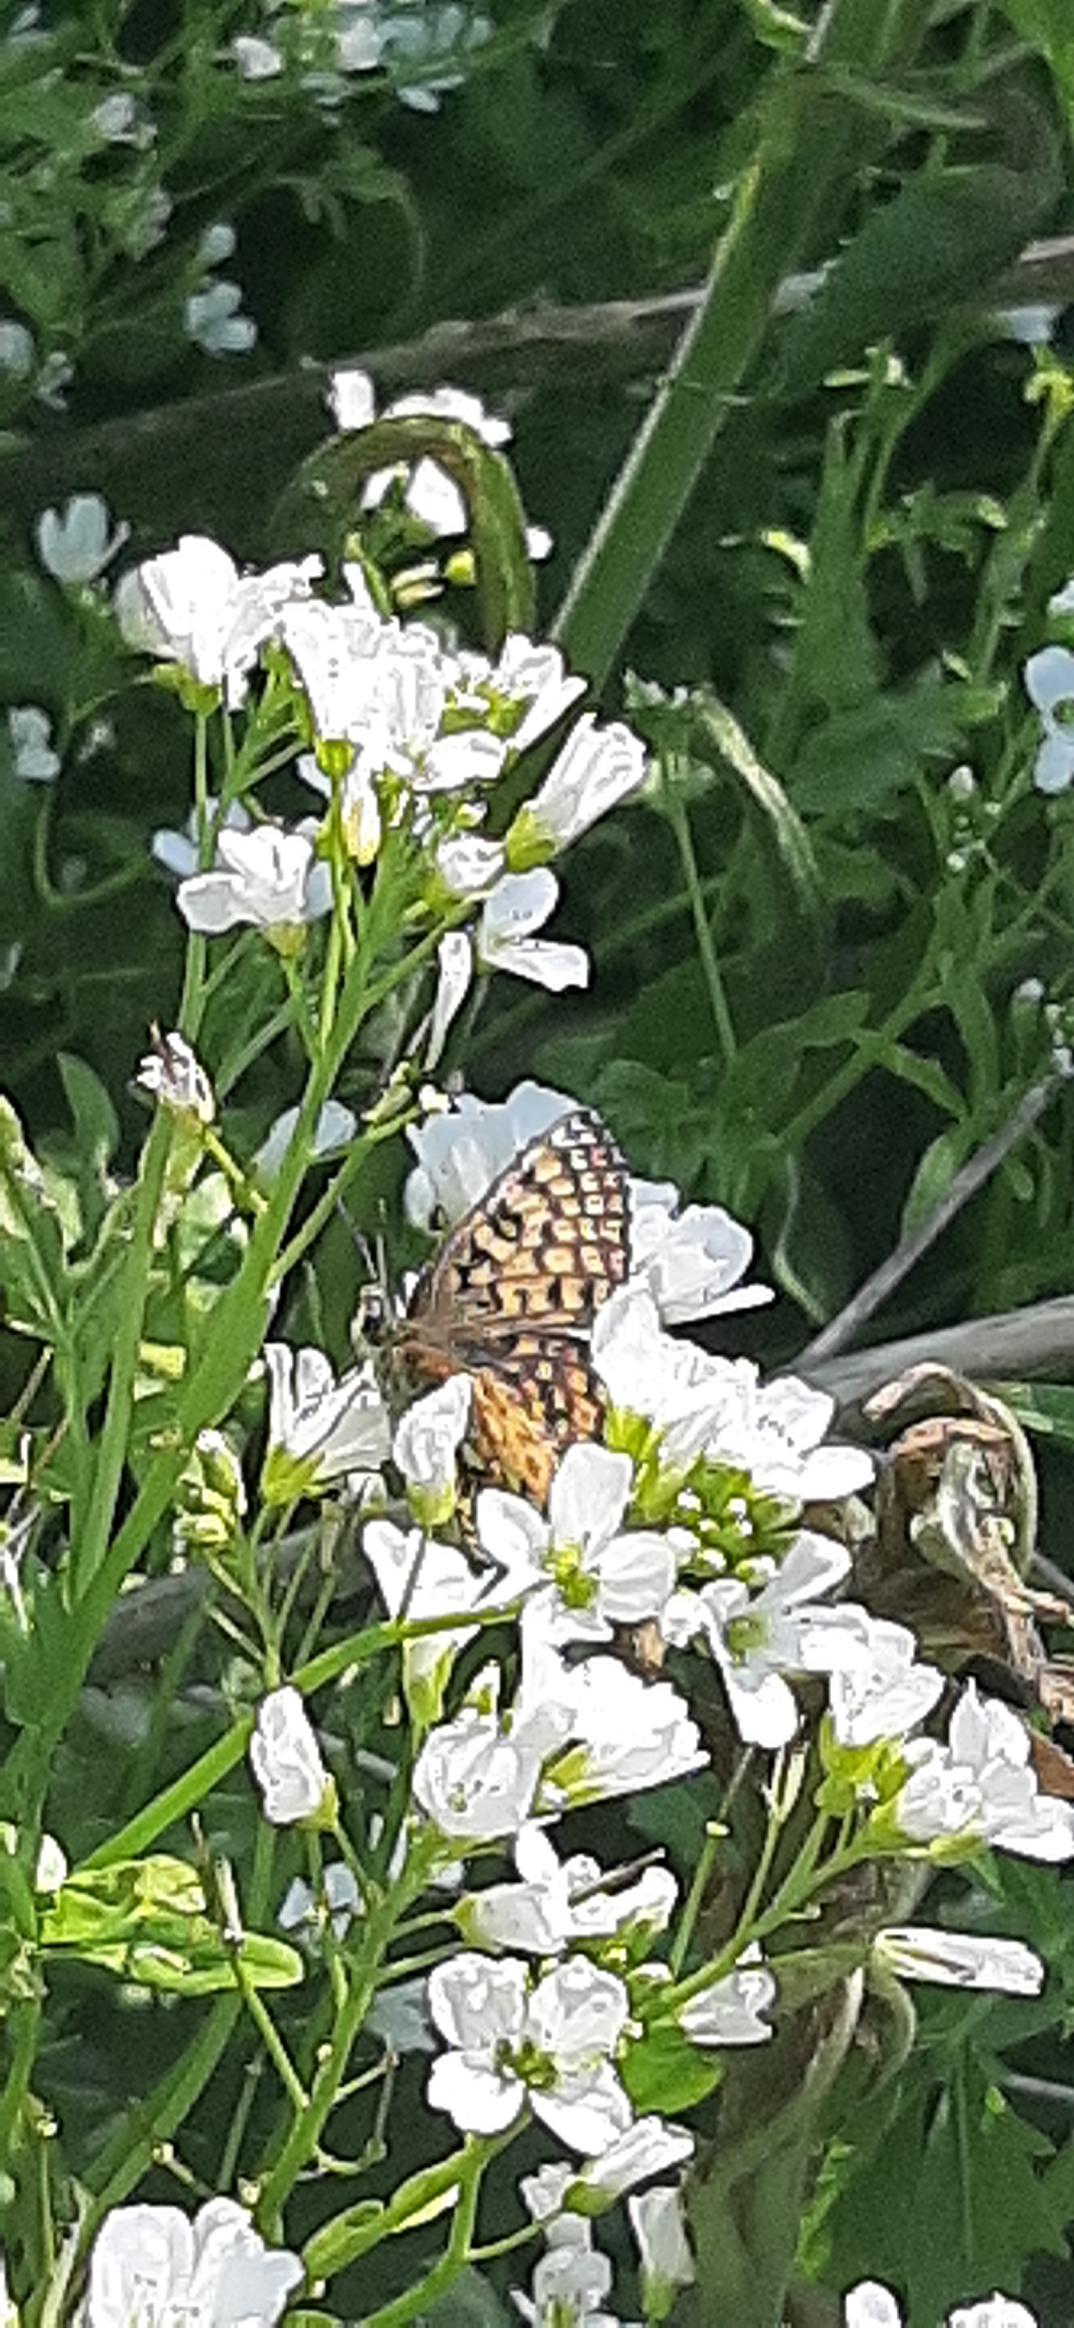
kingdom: Animalia
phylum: Arthropoda
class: Insecta
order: Lepidoptera
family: Nymphalidae
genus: Melitaea
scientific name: Melitaea cinxia
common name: Okkergul pletvinge
